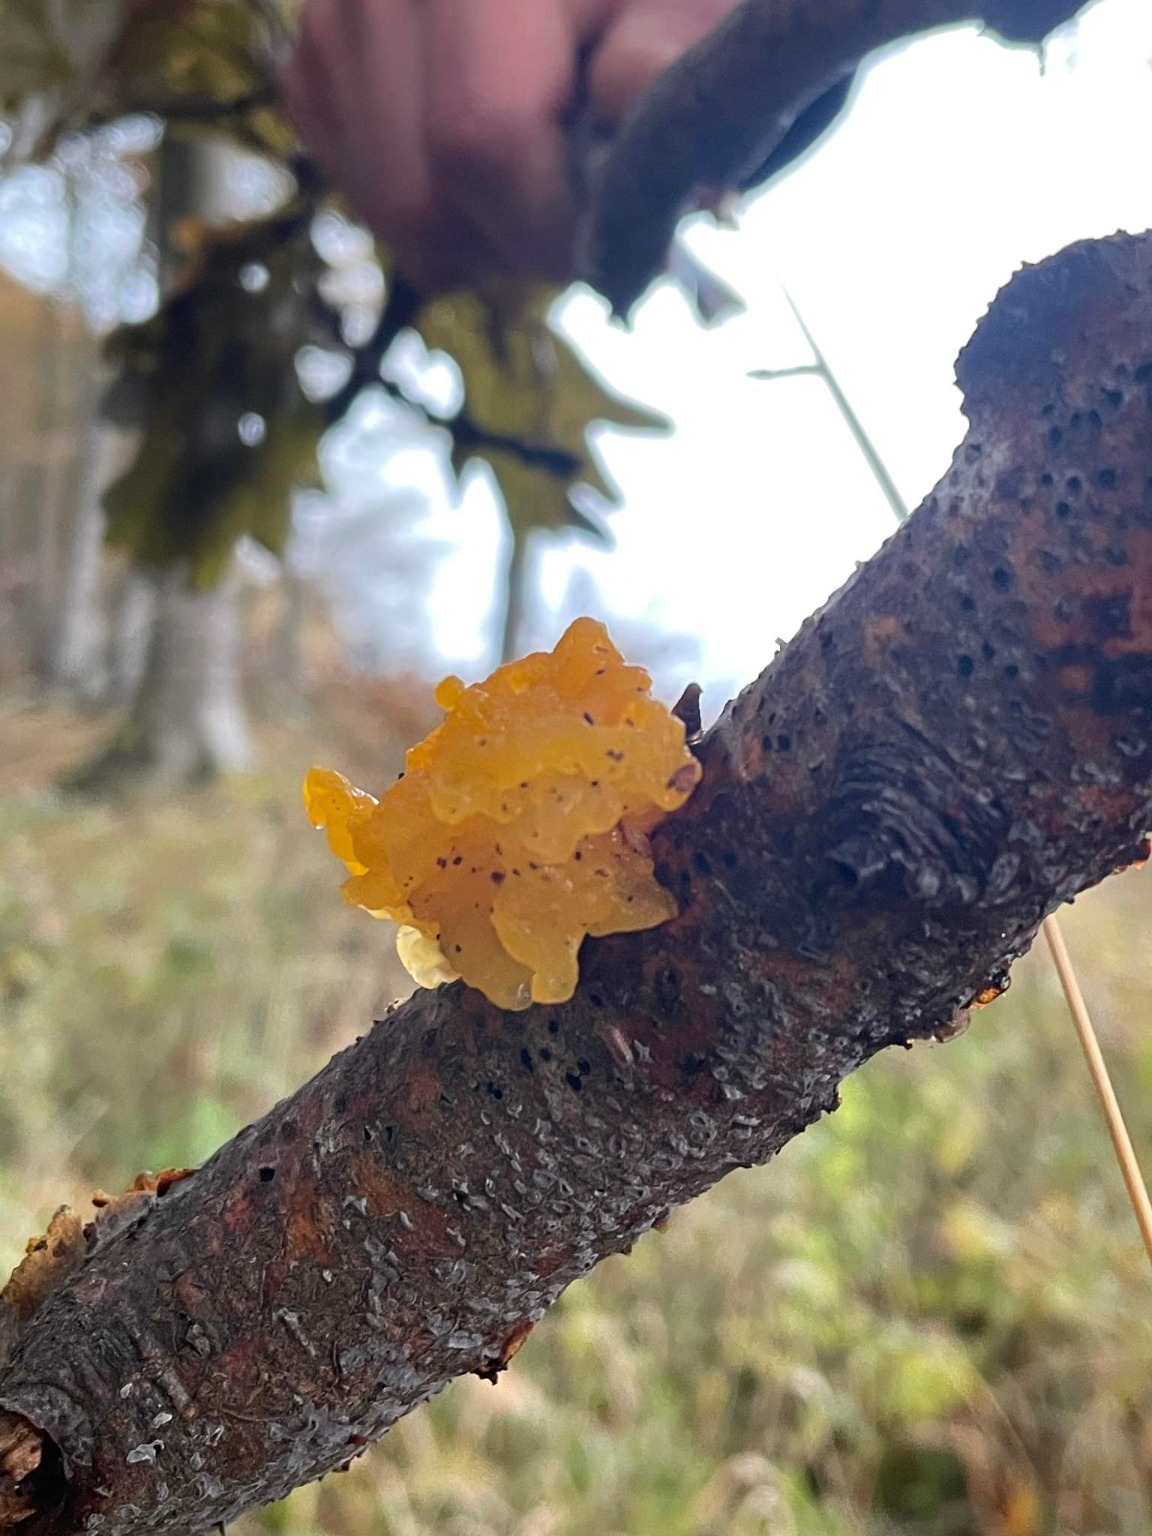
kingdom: Fungi
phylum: Basidiomycota
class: Tremellomycetes
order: Tremellales
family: Tremellaceae
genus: Tremella
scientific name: Tremella mesenterica
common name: Gul bævresvamp
